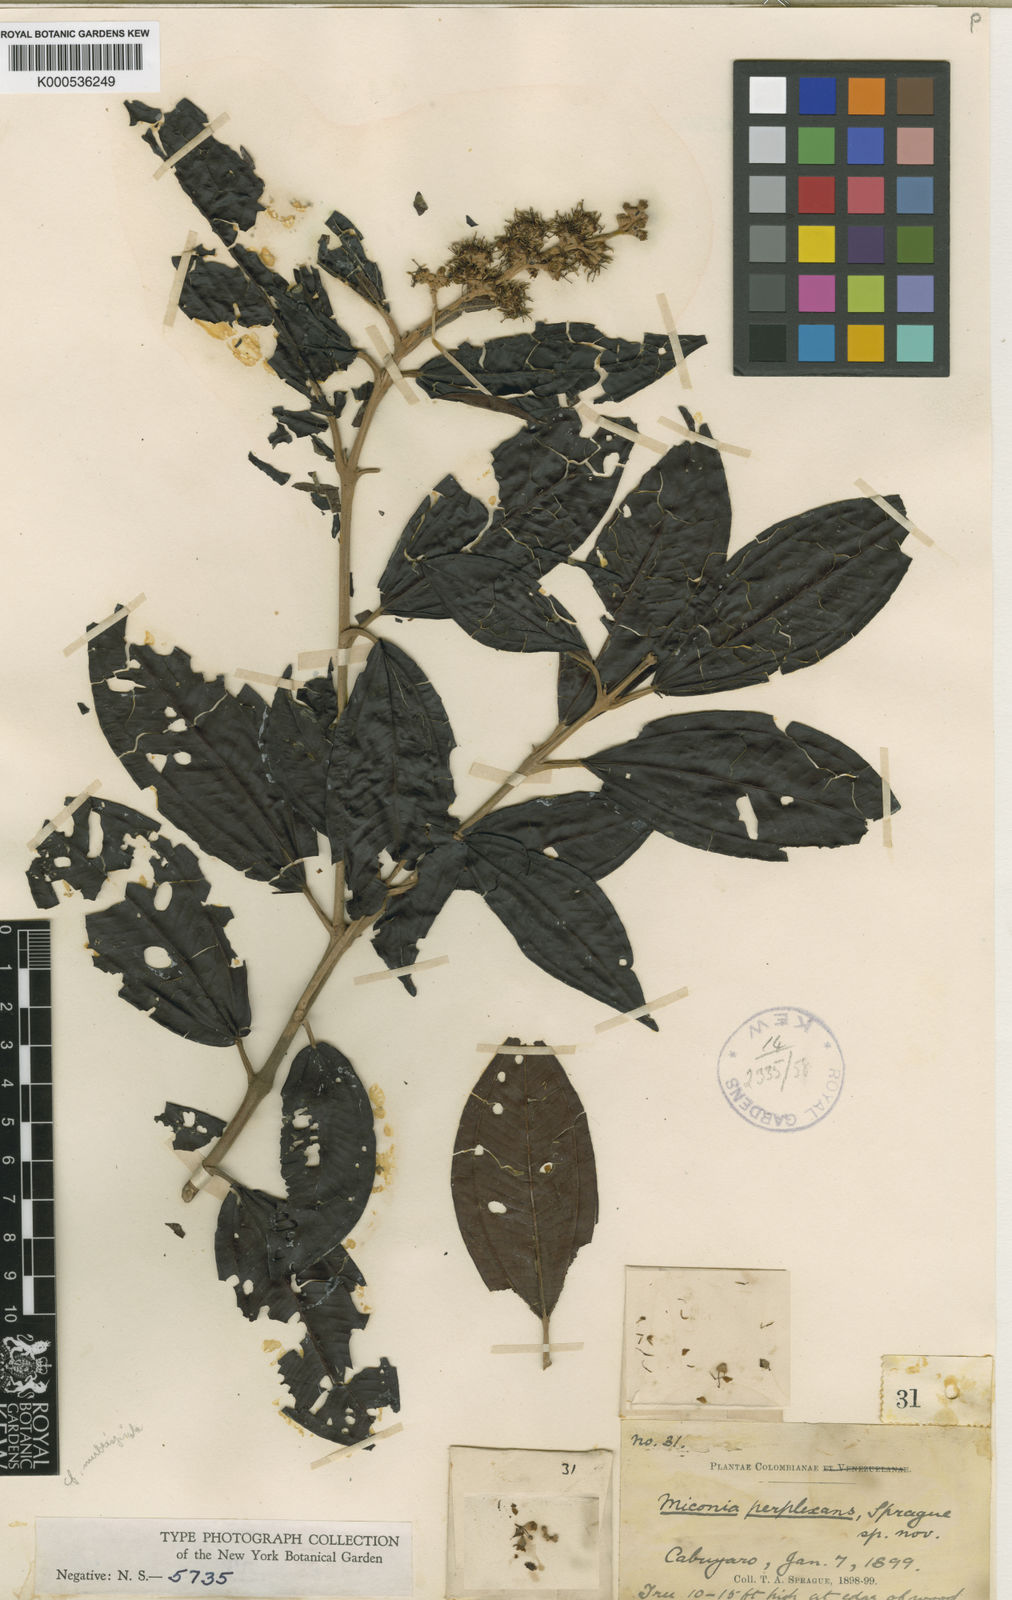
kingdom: Plantae
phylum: Tracheophyta
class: Magnoliopsida
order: Myrtales
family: Melastomataceae
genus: Miconia
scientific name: Miconia multispicata
